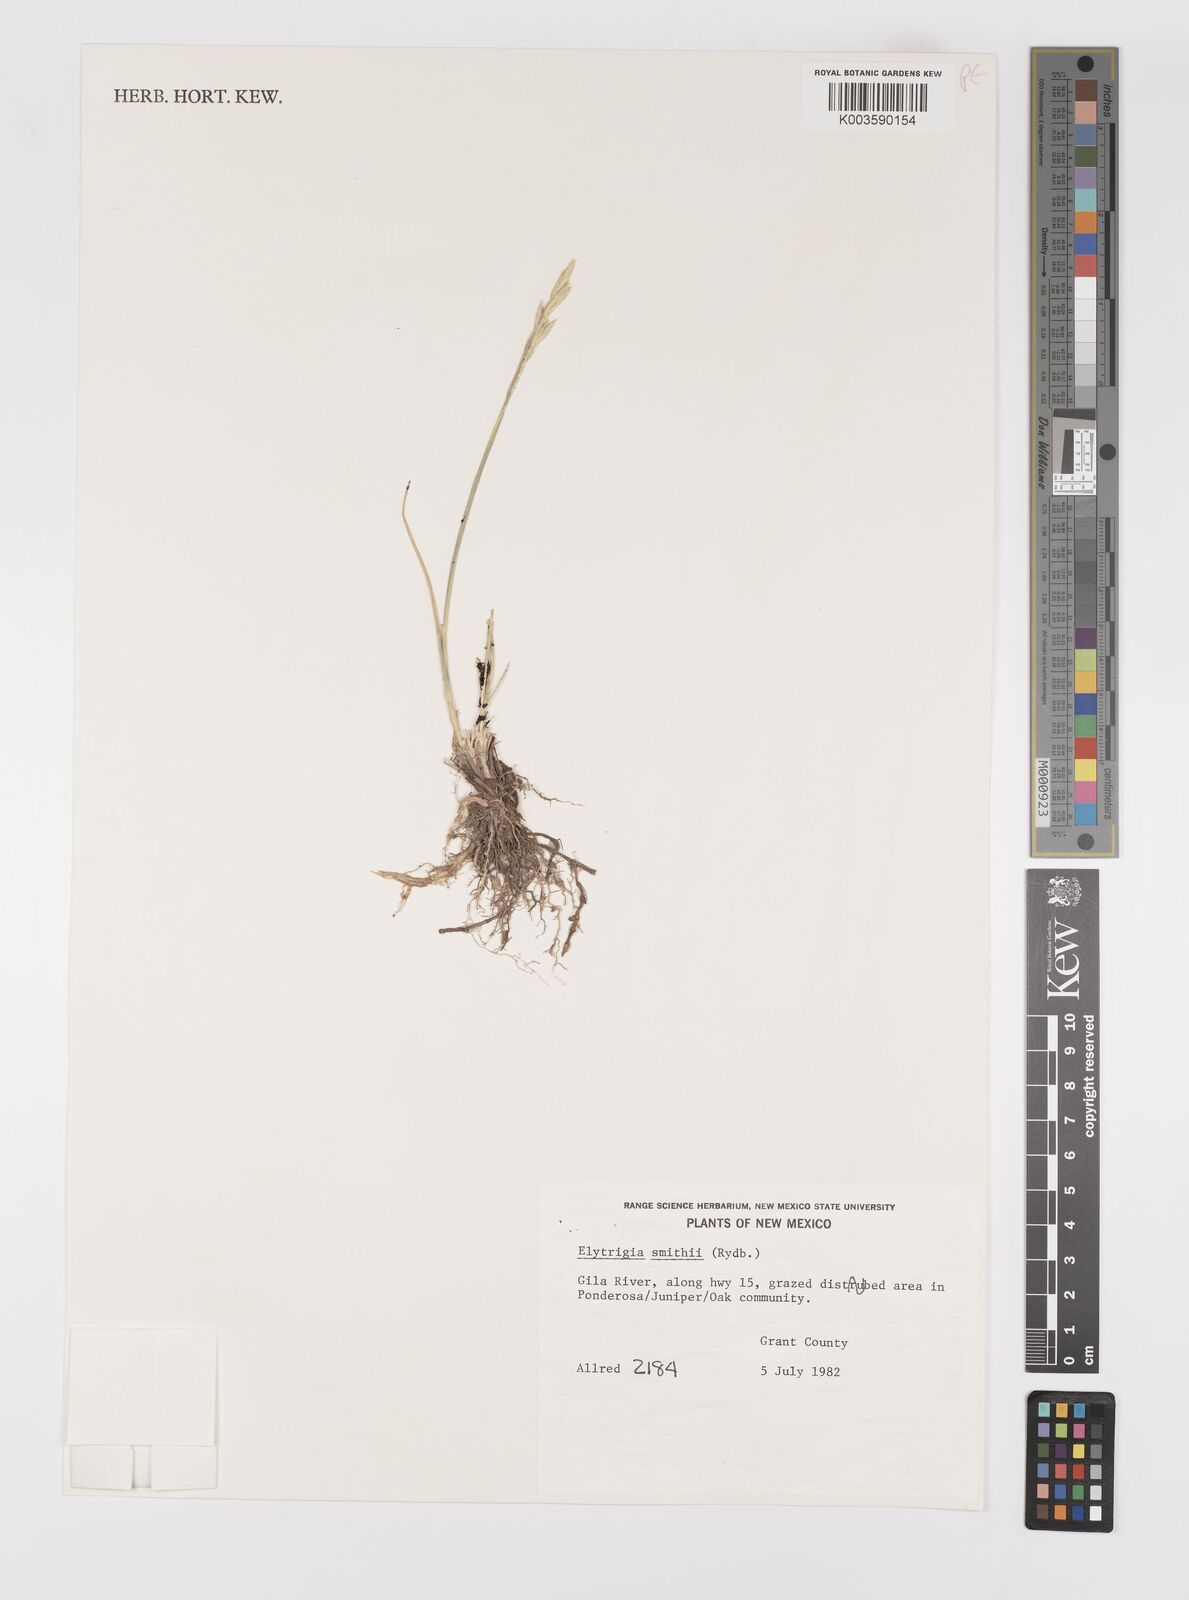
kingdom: Plantae
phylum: Tracheophyta
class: Liliopsida
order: Poales
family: Poaceae
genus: Elymus
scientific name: Elymus smithii
